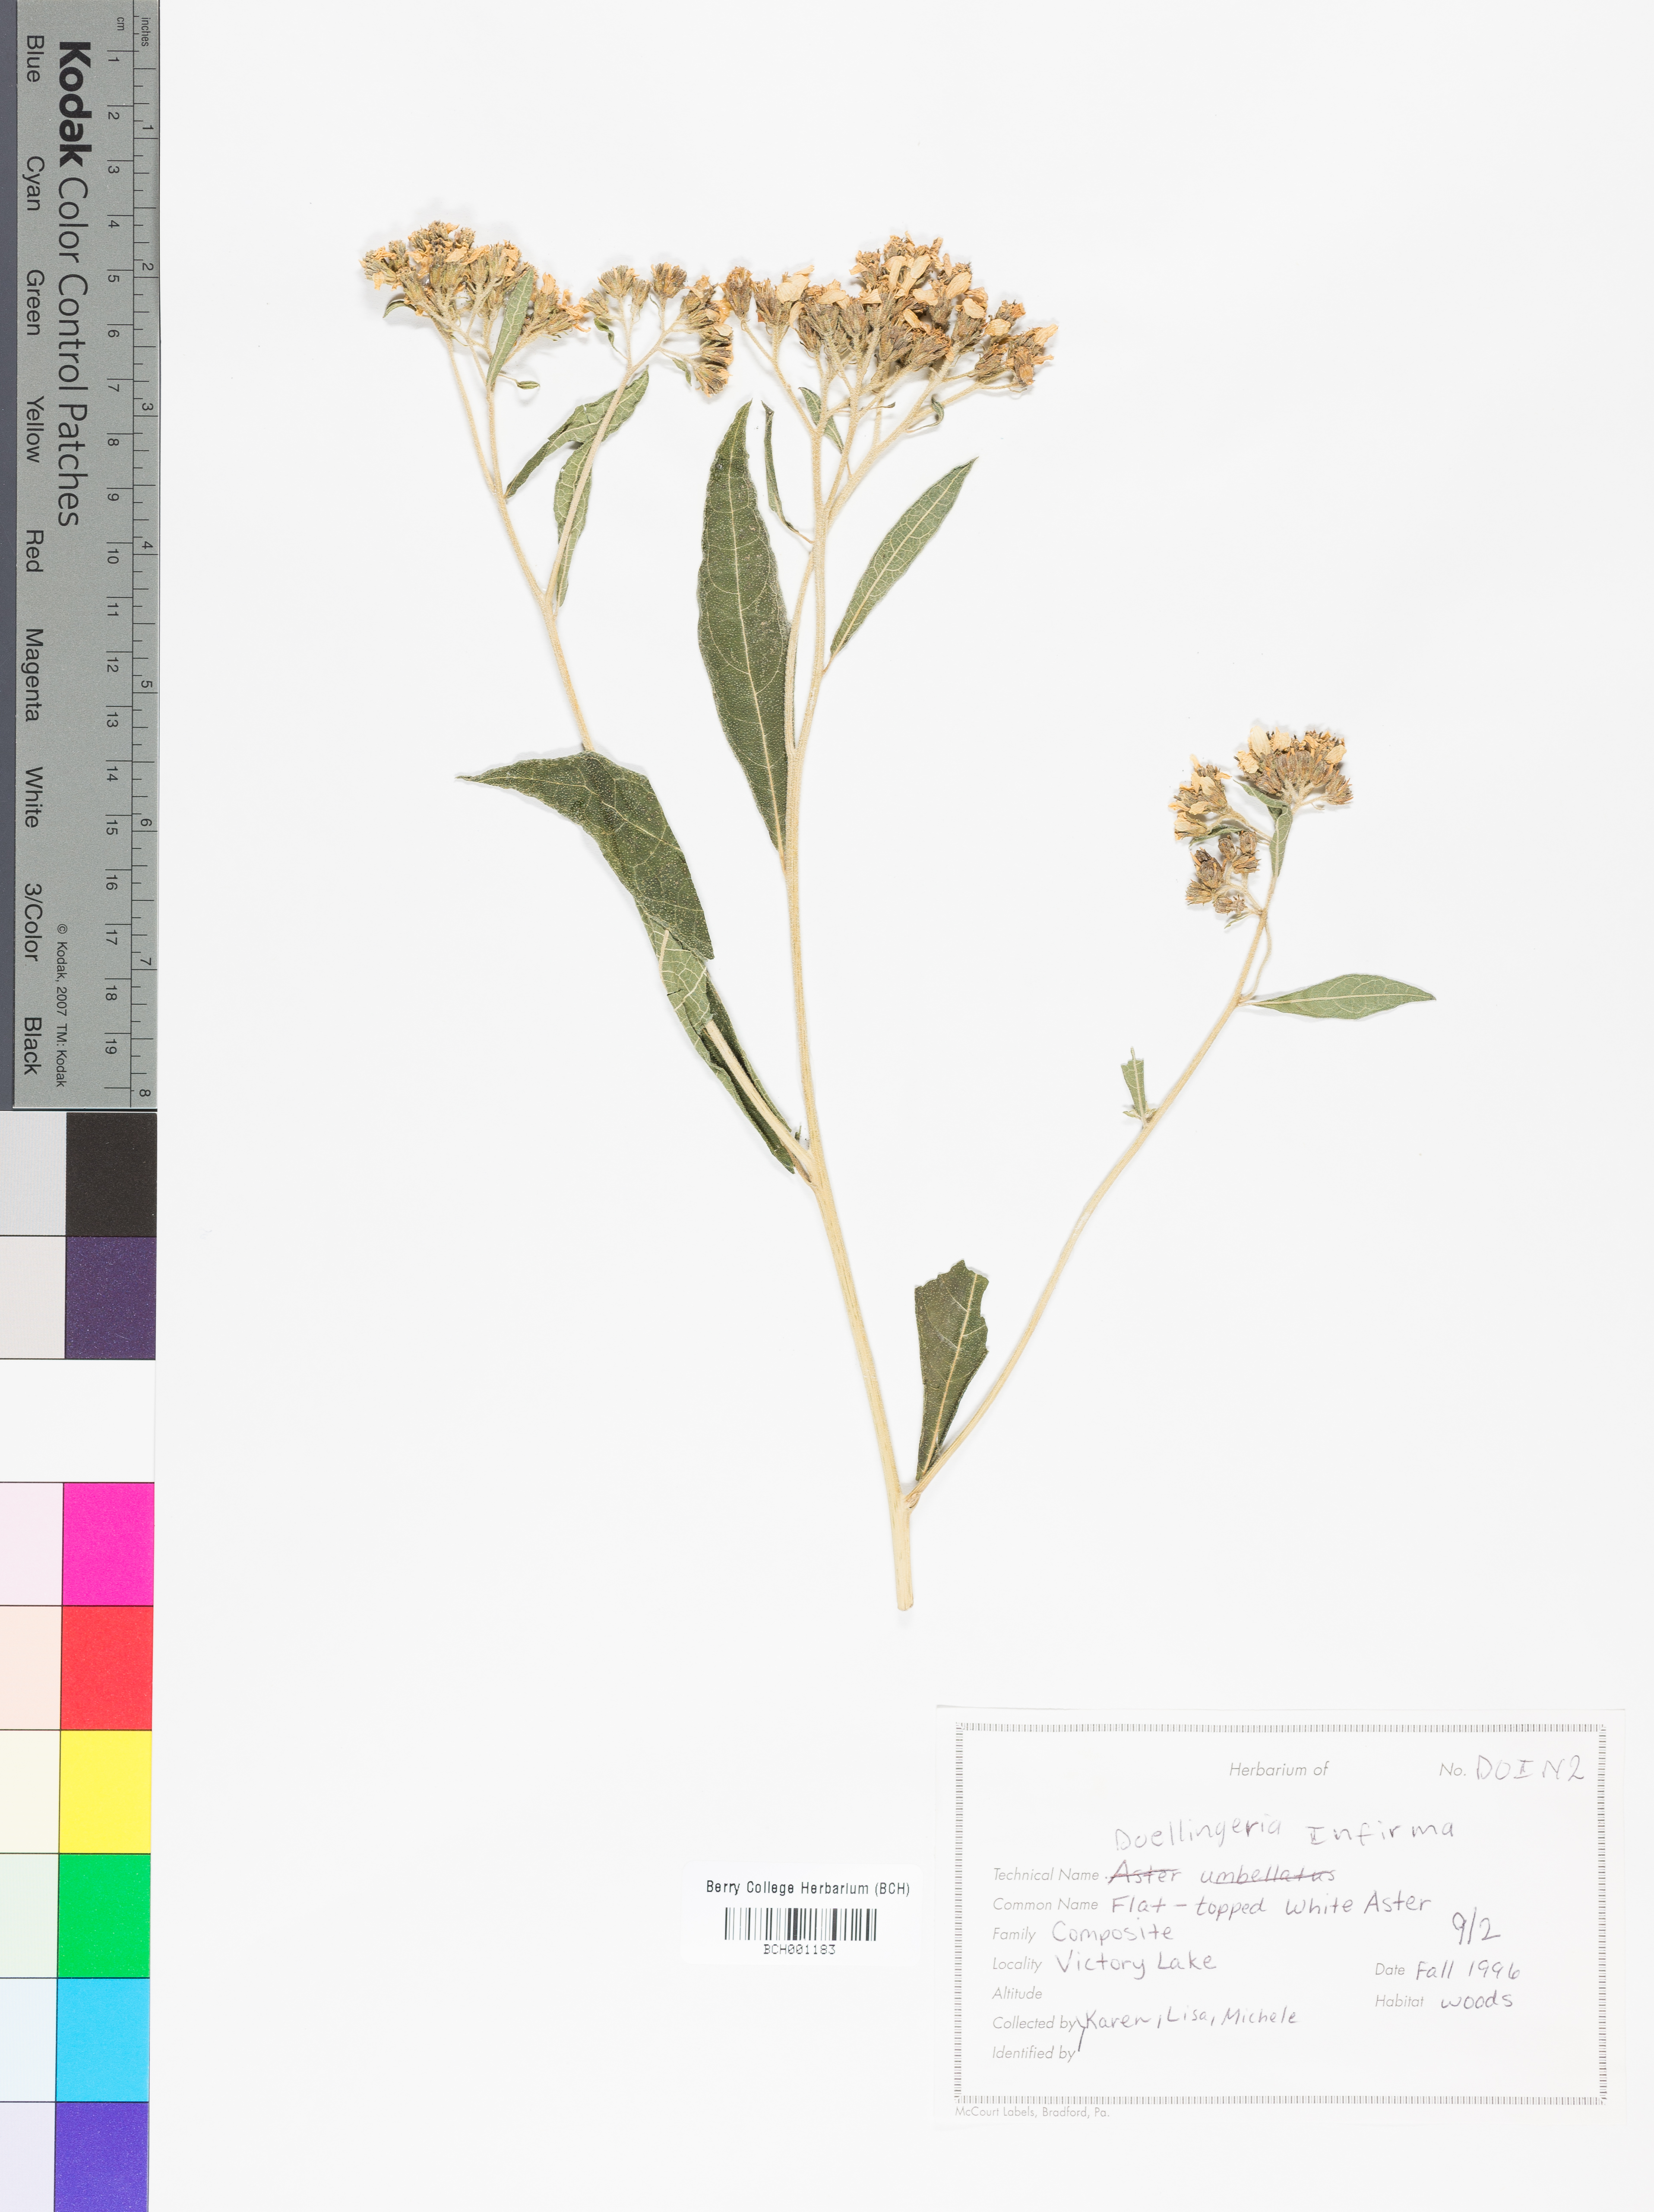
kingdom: Plantae
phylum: Tracheophyta
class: Magnoliopsida
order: Asterales
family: Asteraceae
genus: Doellingeria
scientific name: Doellingeria infirma
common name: Appalachian flat-top aster
